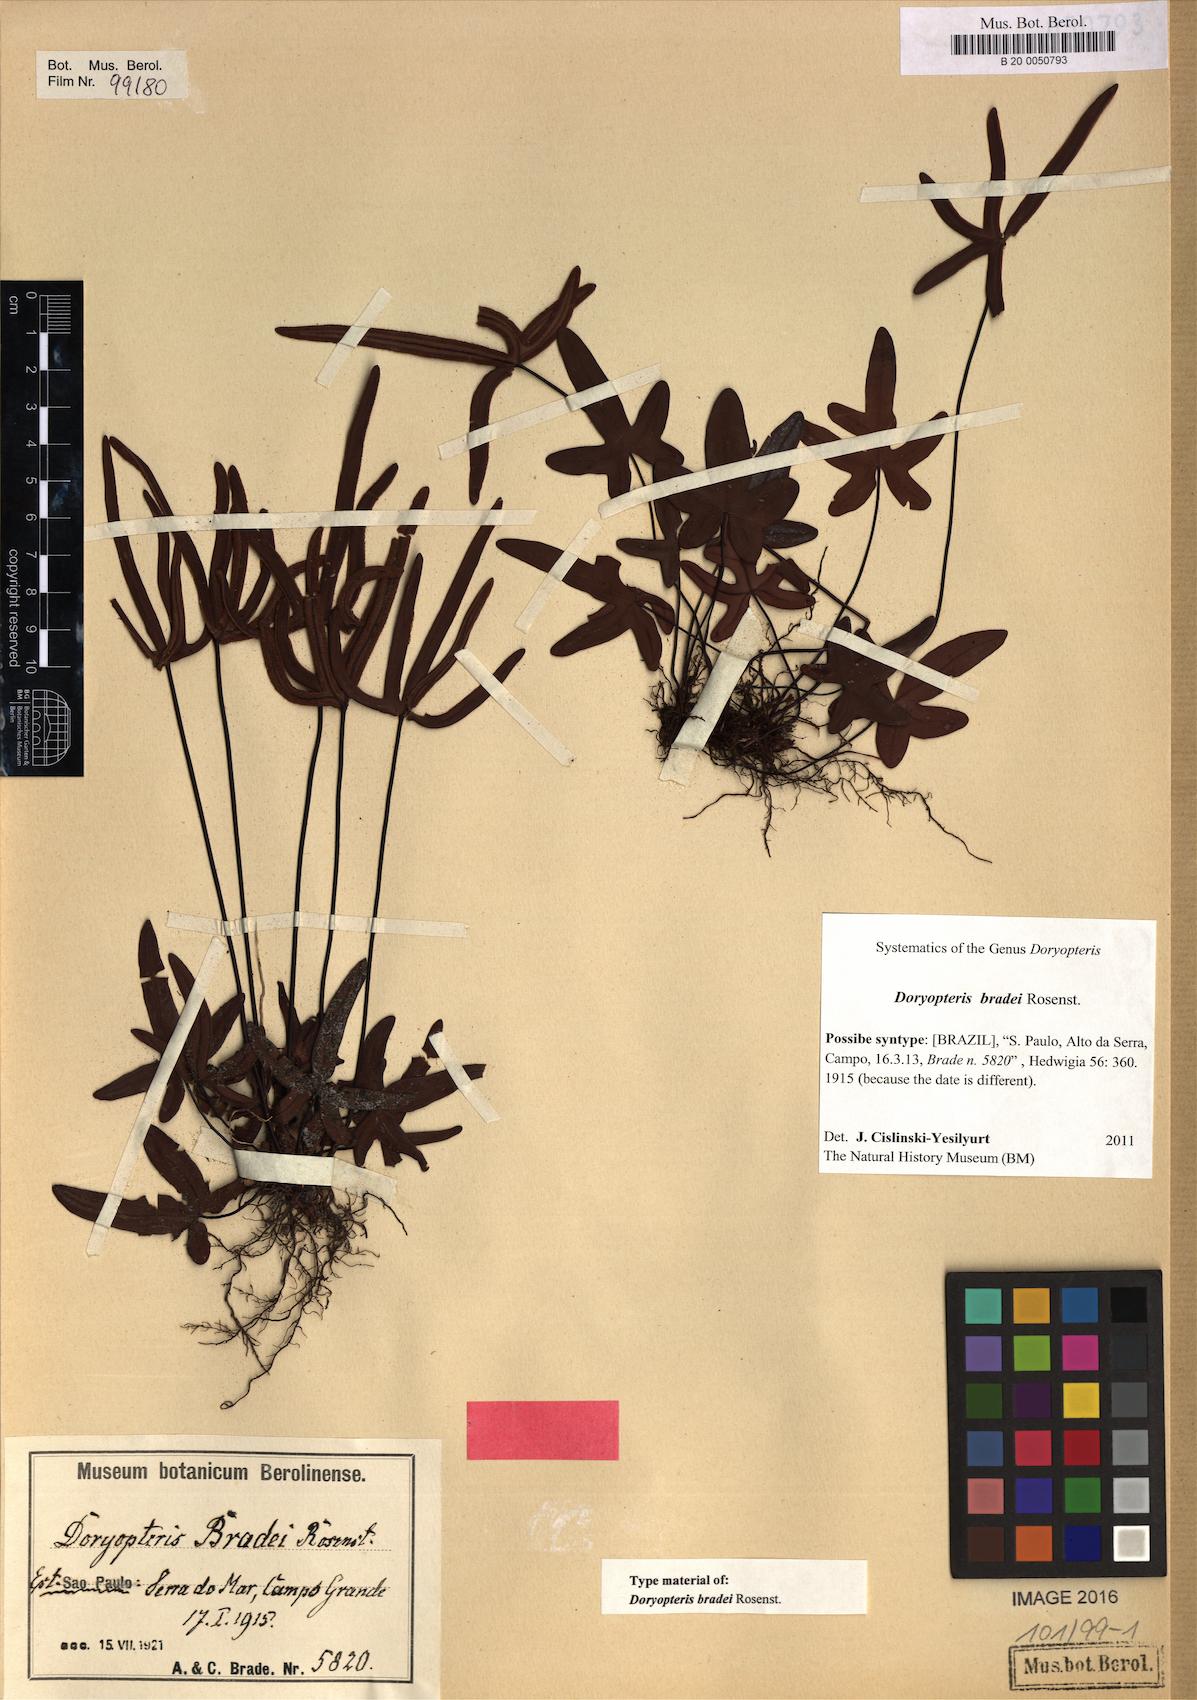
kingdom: Plantae
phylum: Tracheophyta
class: Polypodiopsida
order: Polypodiales
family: Pteridaceae
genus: Lytoneuron
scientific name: Lytoneuron bradei
